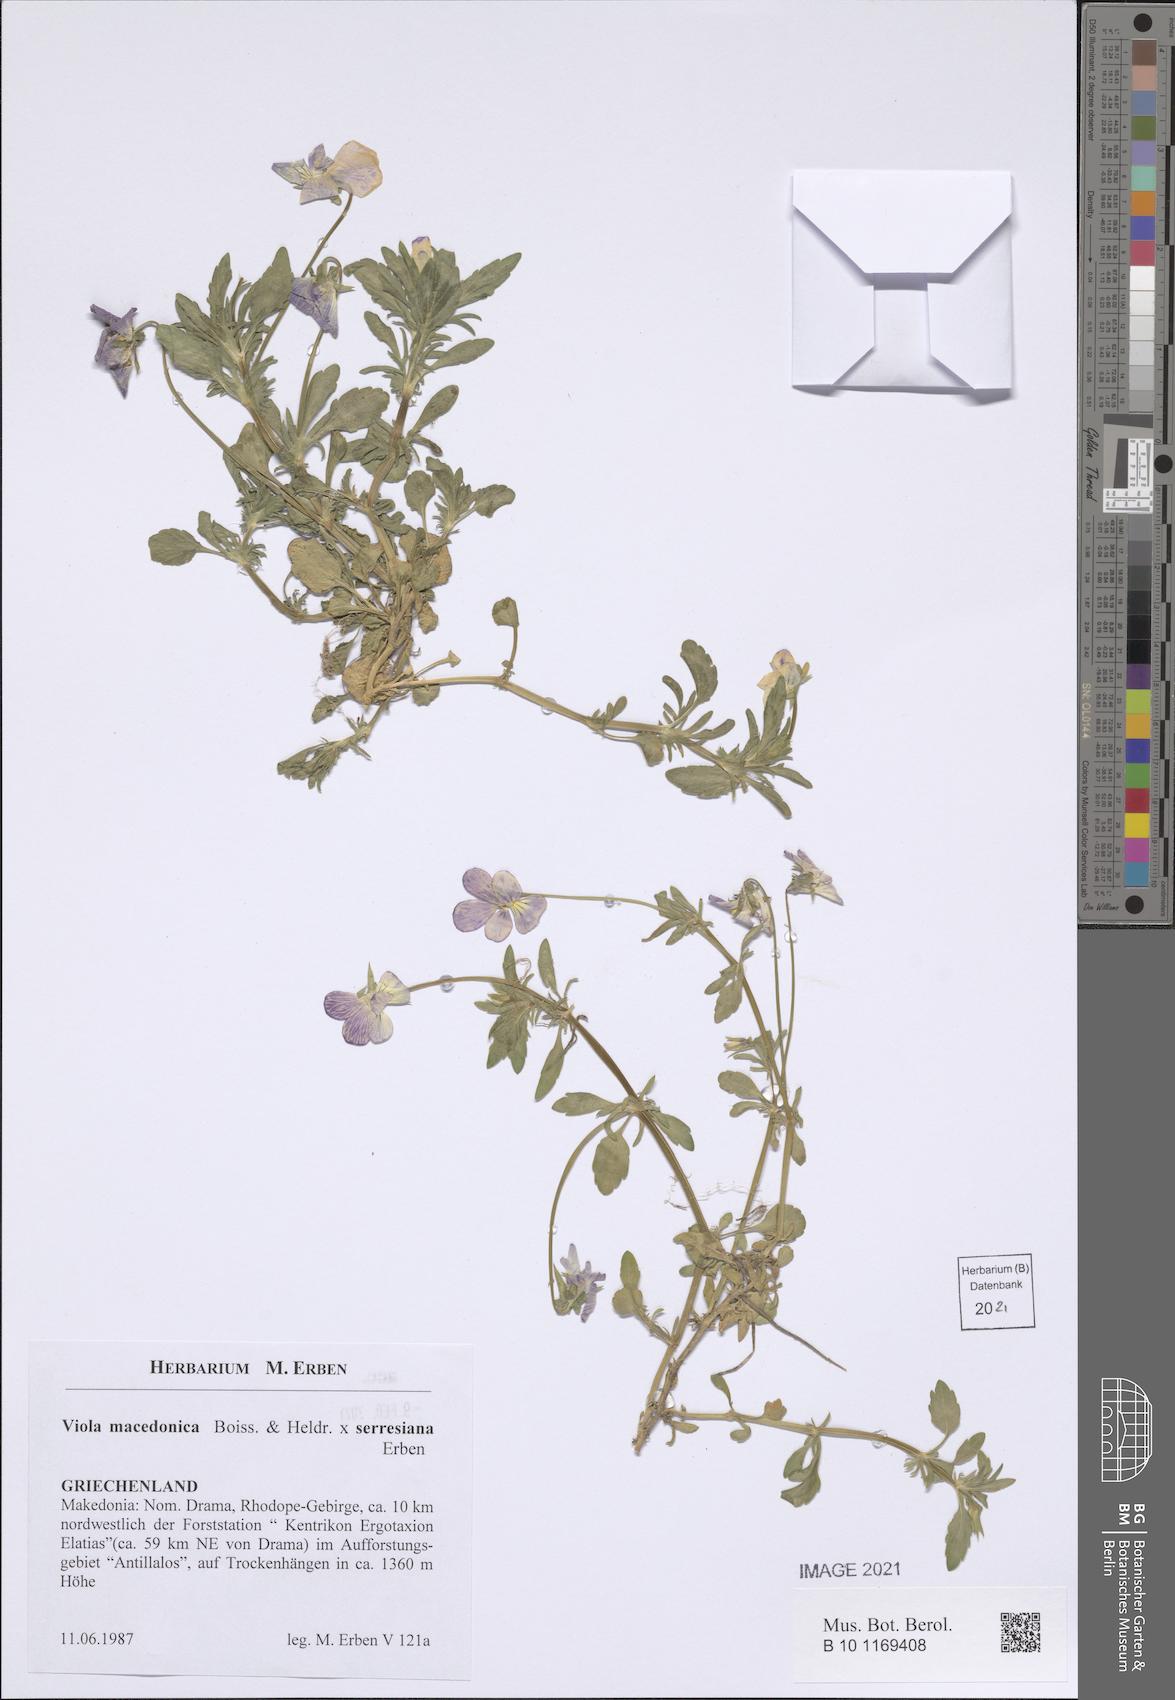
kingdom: Plantae
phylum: Tracheophyta
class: Magnoliopsida
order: Malpighiales
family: Violaceae
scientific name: Violaceae
